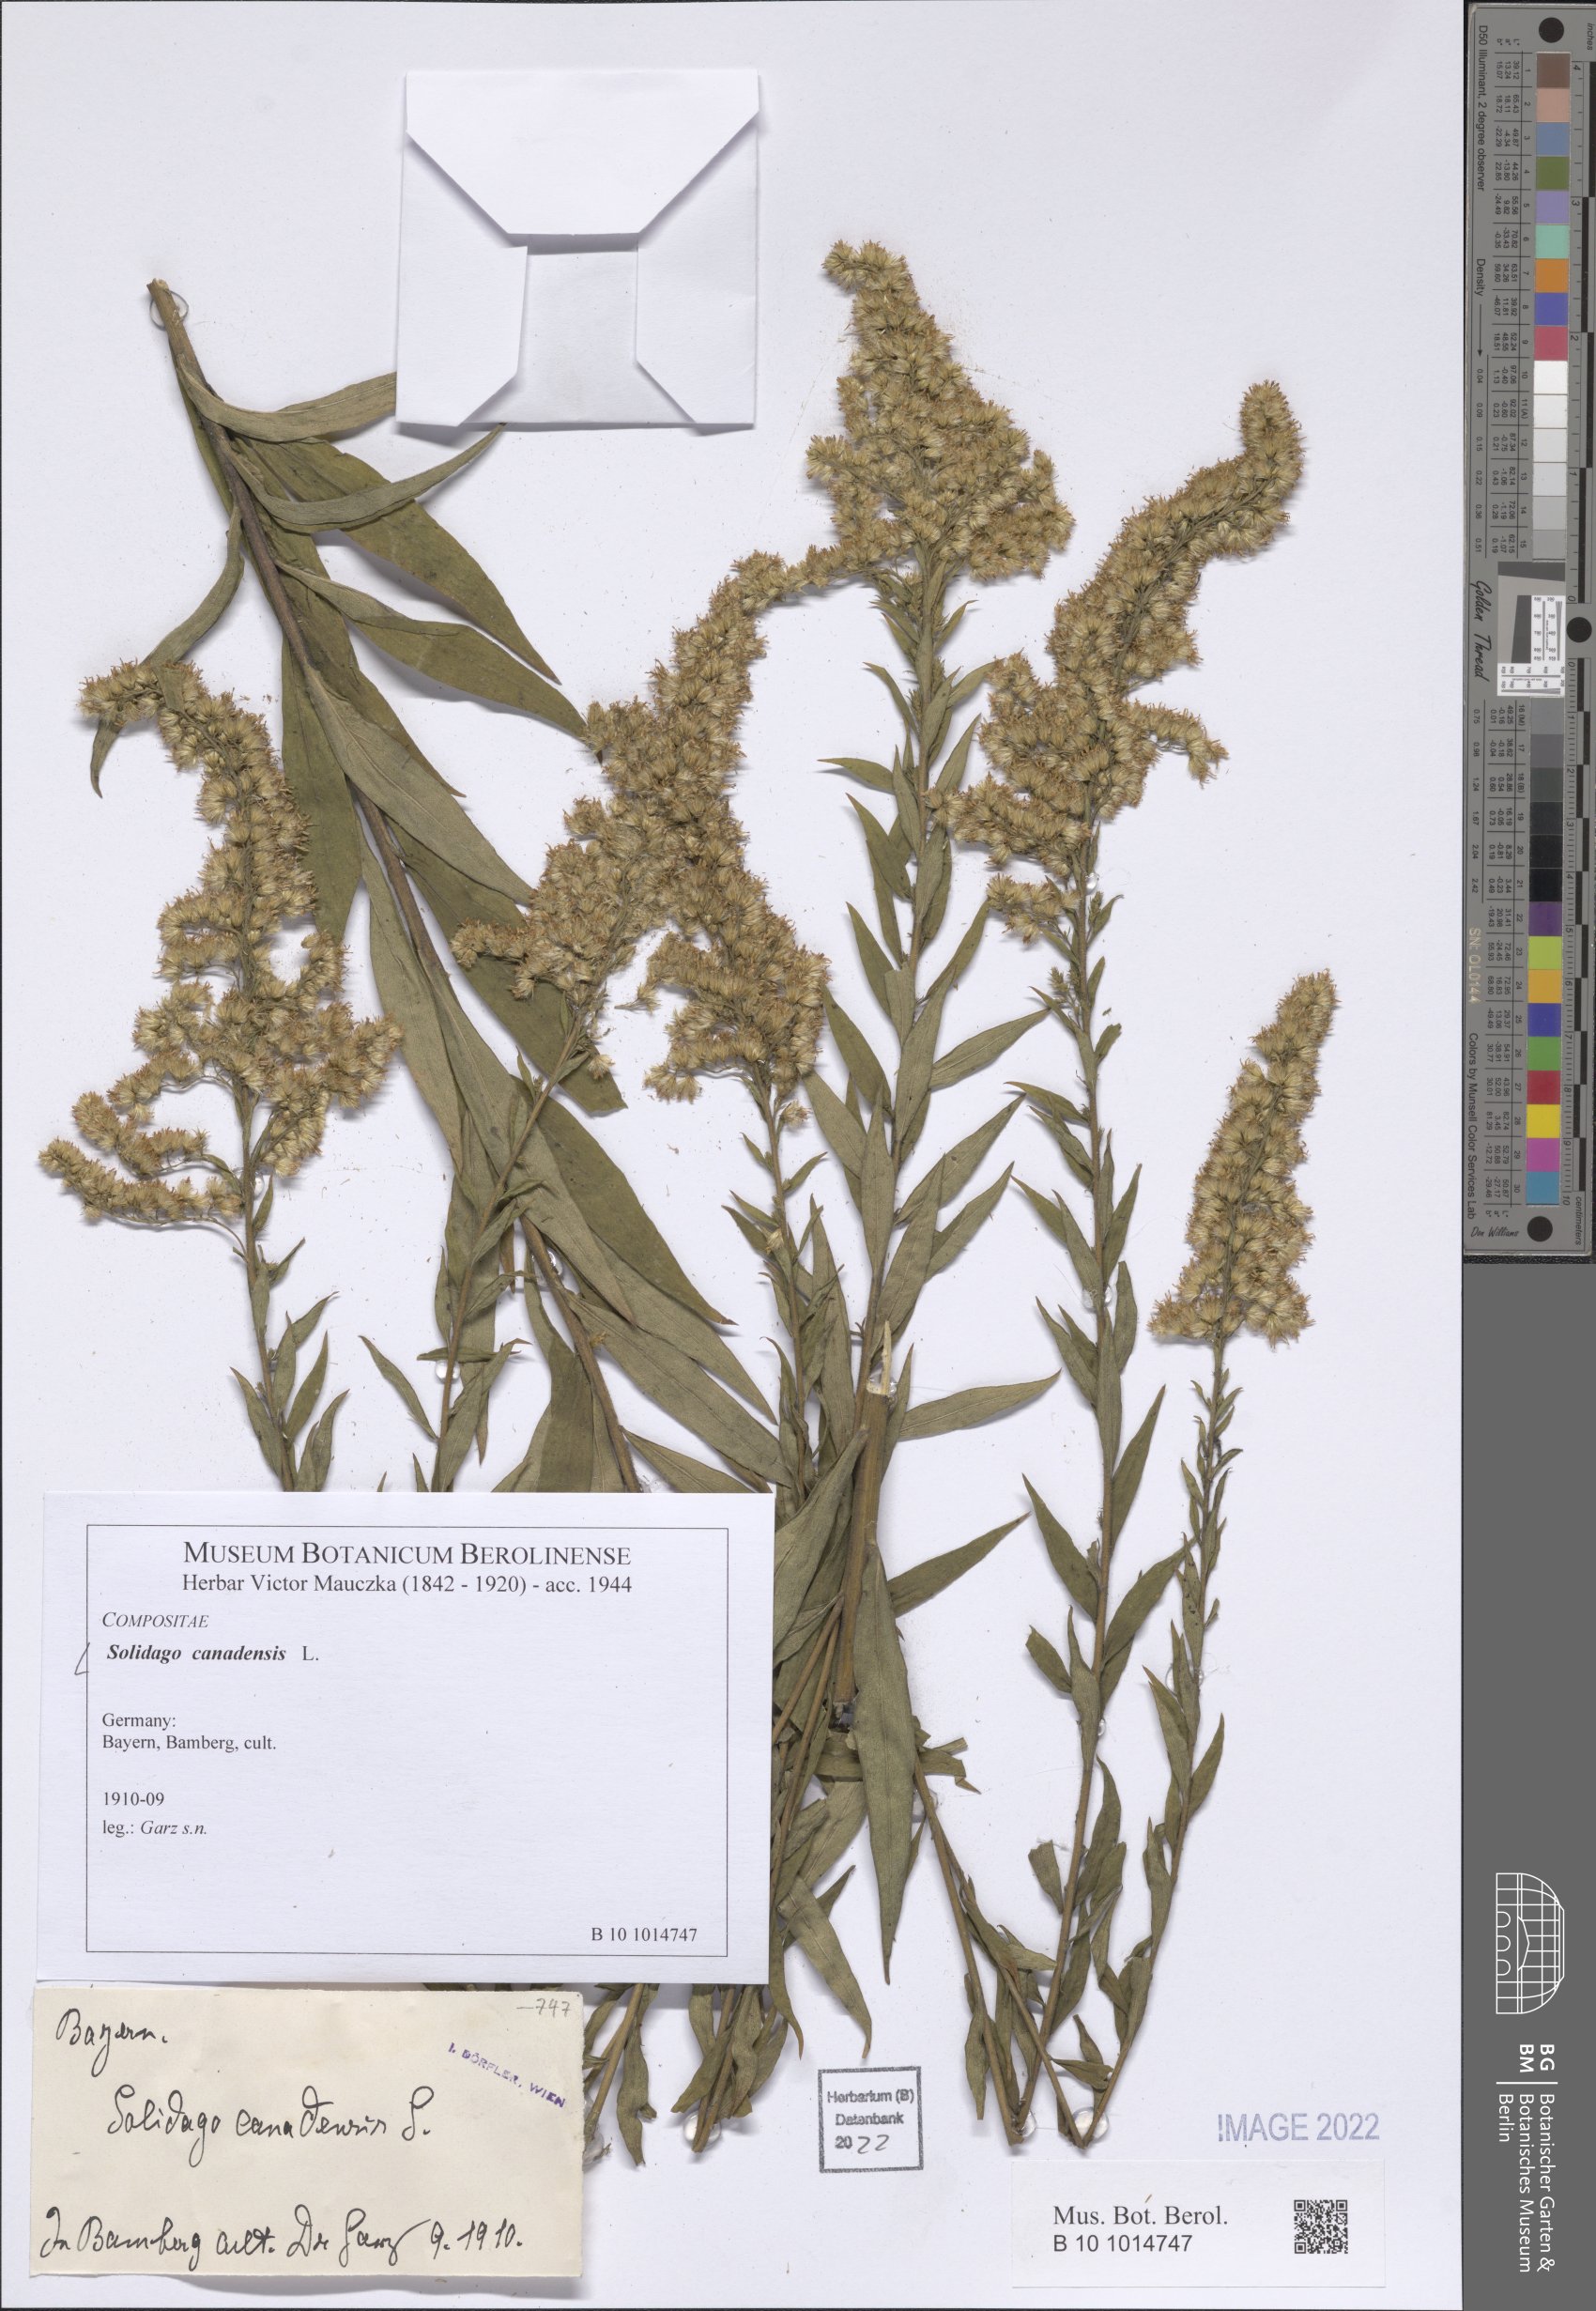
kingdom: Plantae
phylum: Tracheophyta
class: Magnoliopsida
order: Asterales
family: Asteraceae
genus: Solidago
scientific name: Solidago canadensis
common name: Canada goldenrod
